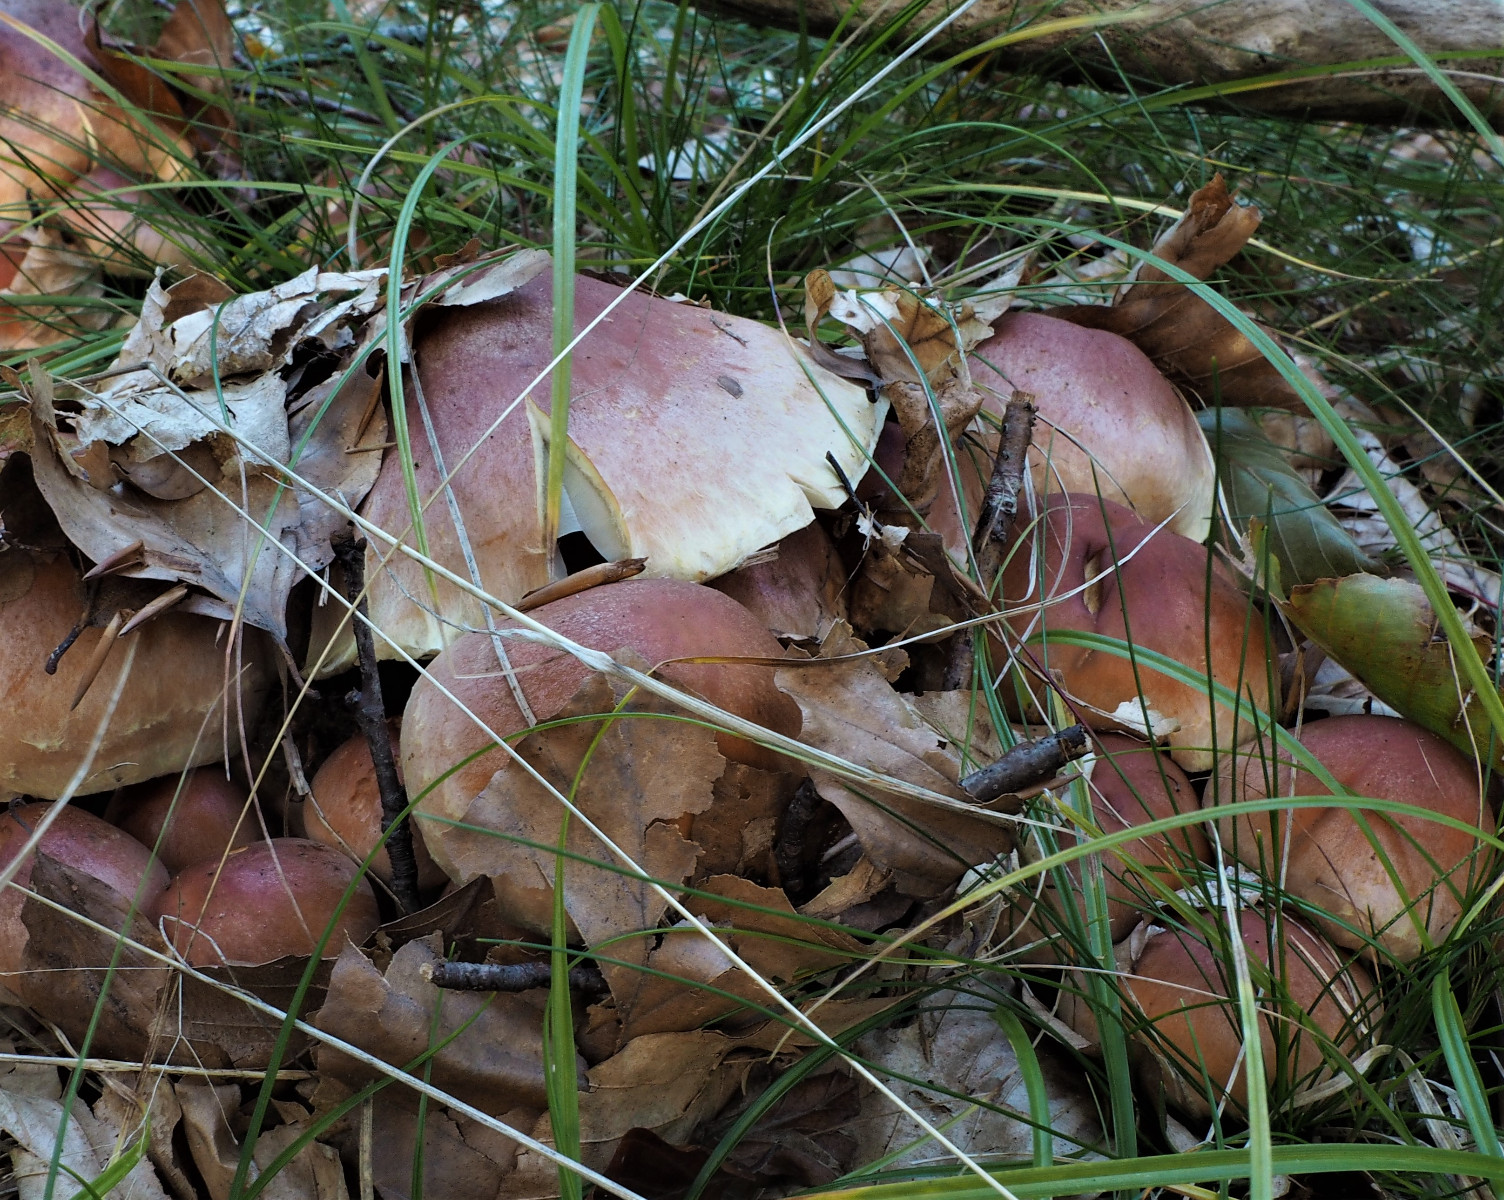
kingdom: Fungi
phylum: Basidiomycota
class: Agaricomycetes
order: Agaricales
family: Strophariaceae
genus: Hypholoma
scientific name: Hypholoma lateritium
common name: teglrød svovlhat
